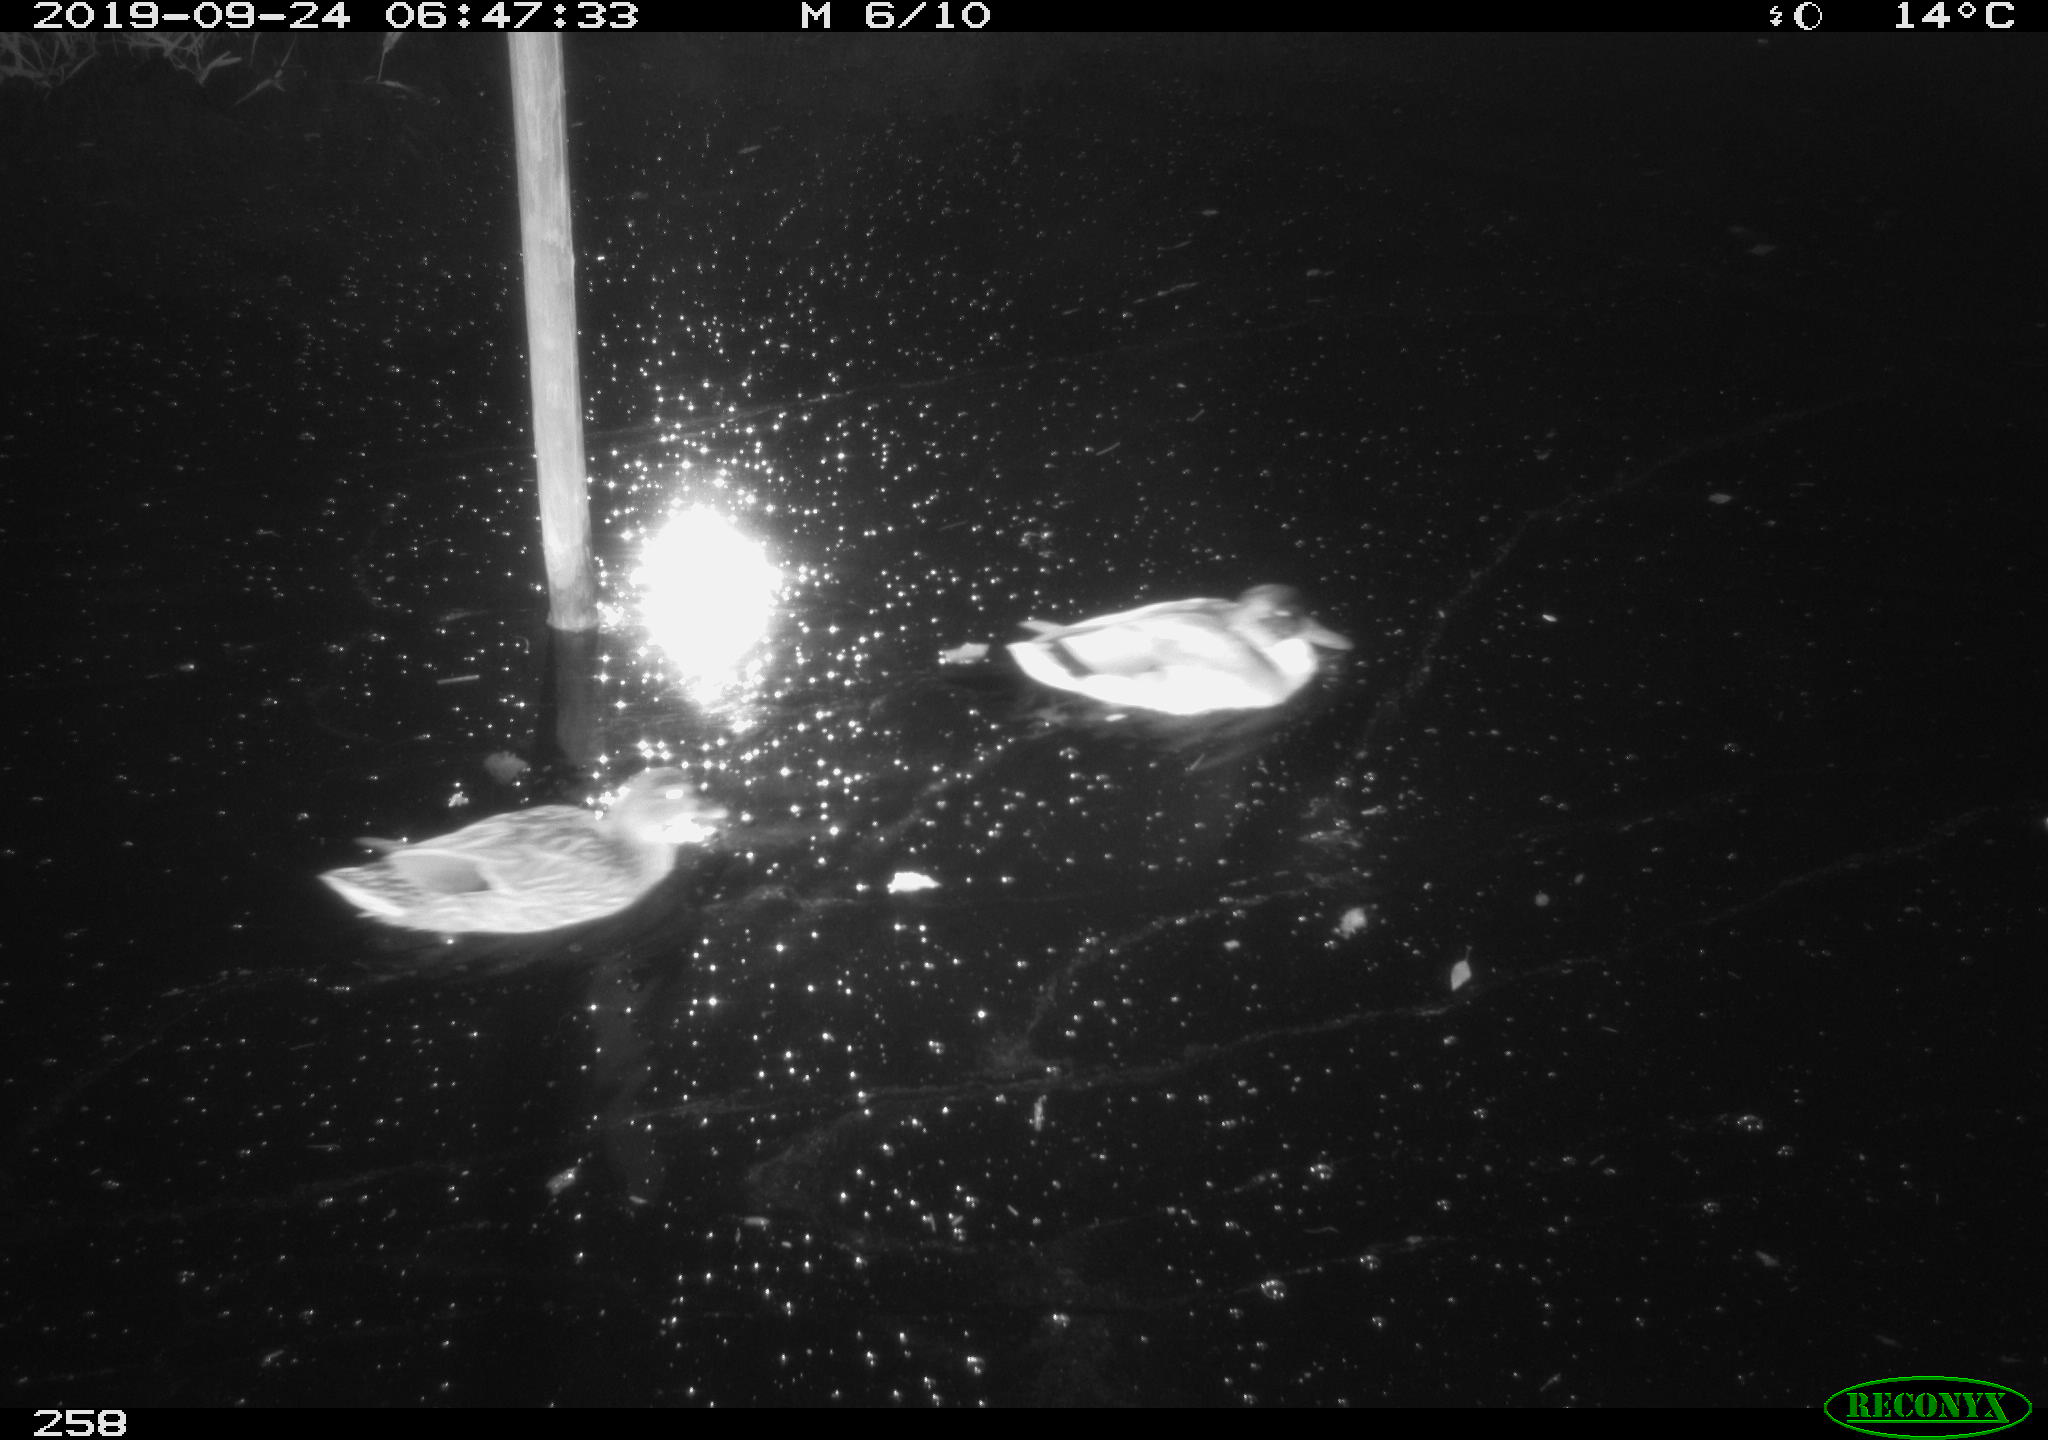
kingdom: Animalia
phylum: Chordata
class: Aves
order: Anseriformes
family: Anatidae
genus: Anas
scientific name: Anas platyrhynchos
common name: Mallard
